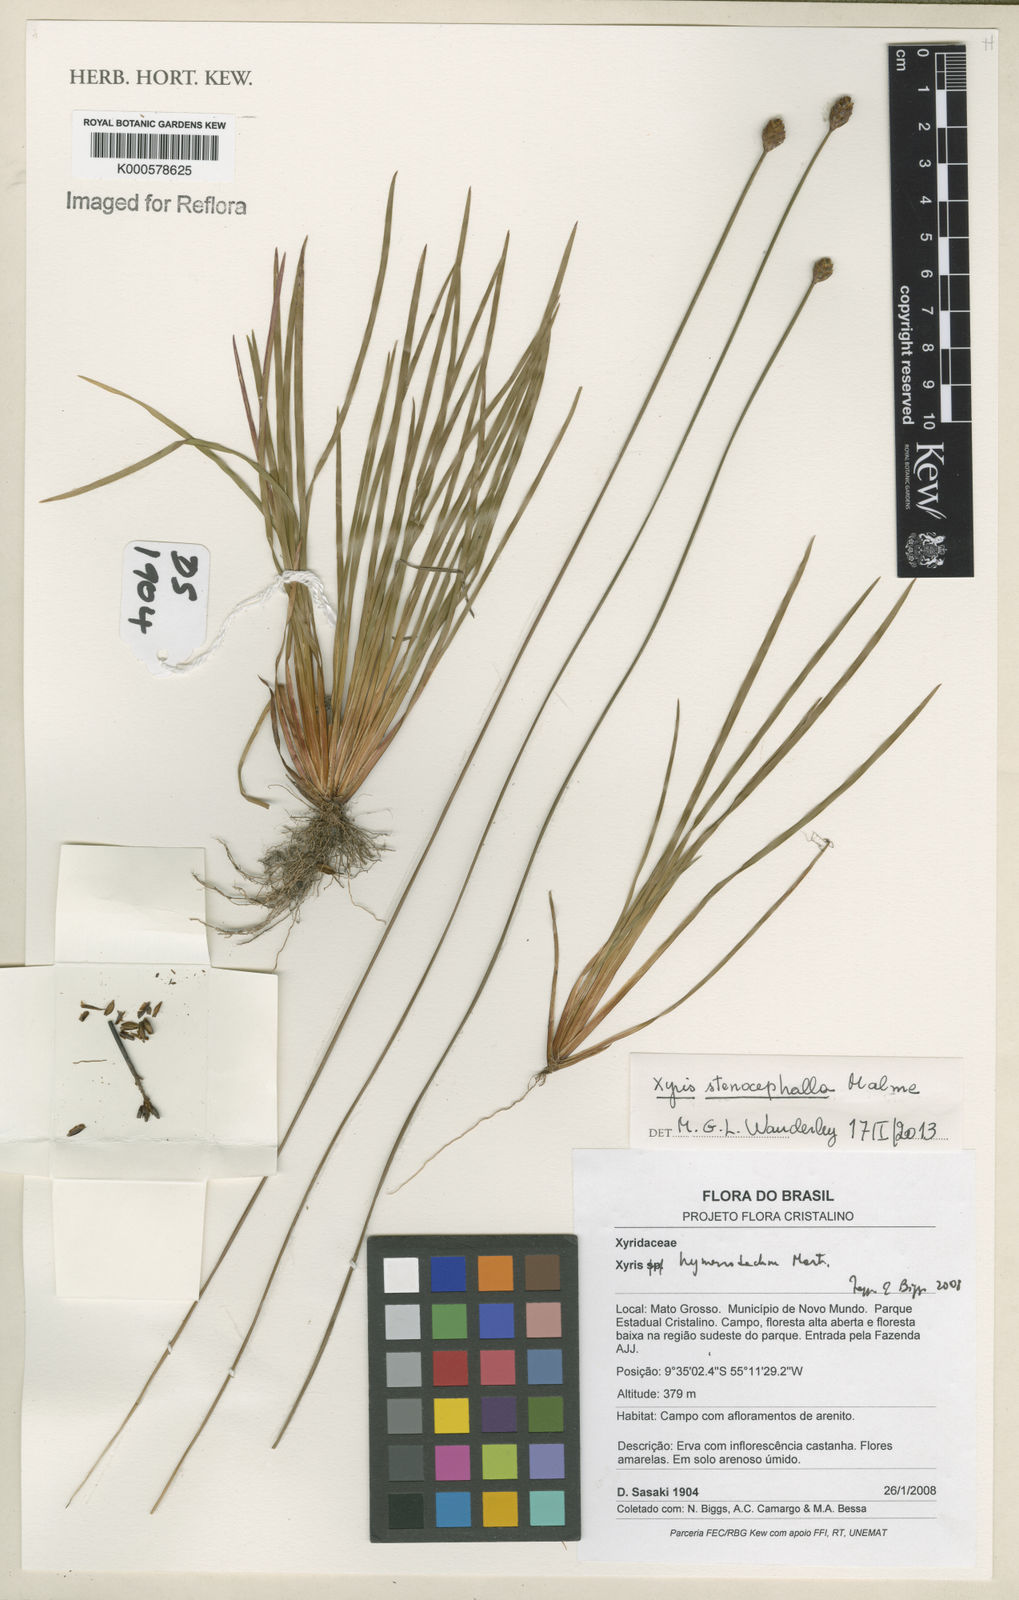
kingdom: Plantae
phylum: Tracheophyta
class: Liliopsida
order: Poales
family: Xyridaceae
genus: Xyris
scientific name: Xyris hymenachne
